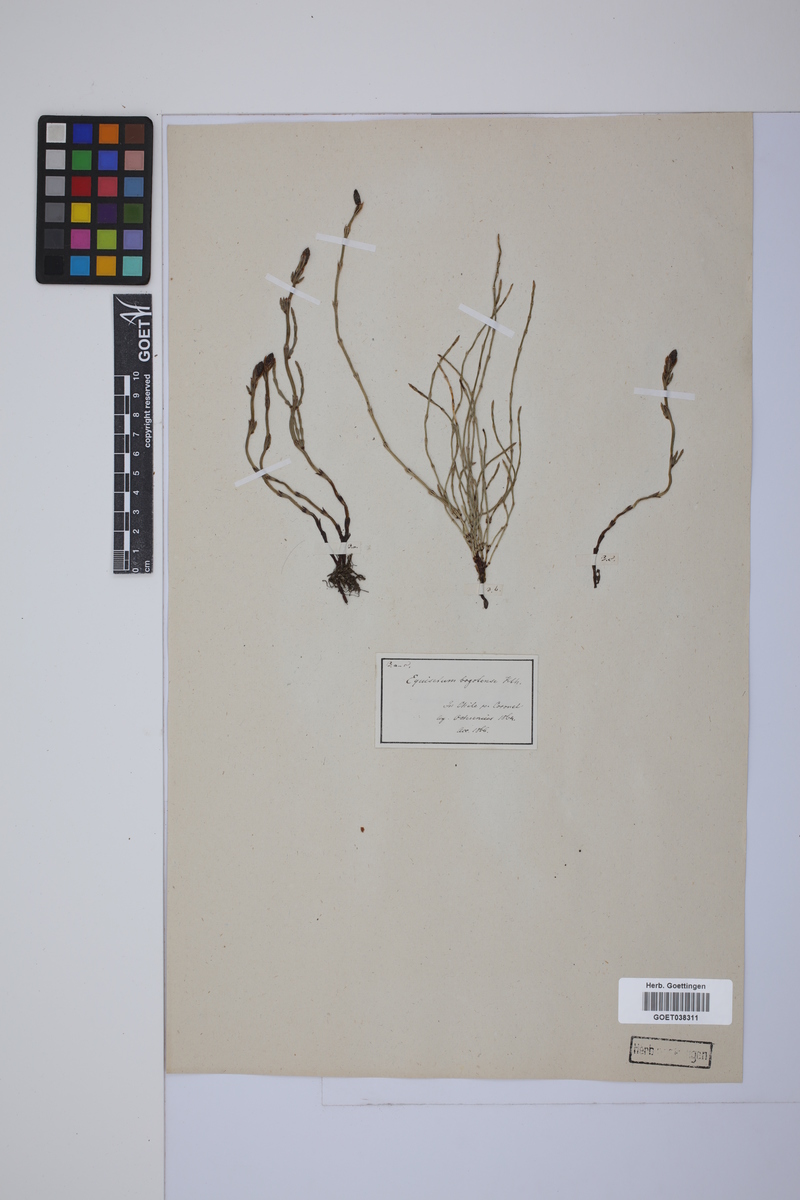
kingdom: Plantae
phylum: Tracheophyta
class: Polypodiopsida
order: Equisetales
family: Equisetaceae
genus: Equisetum
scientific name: Equisetum bogotense
